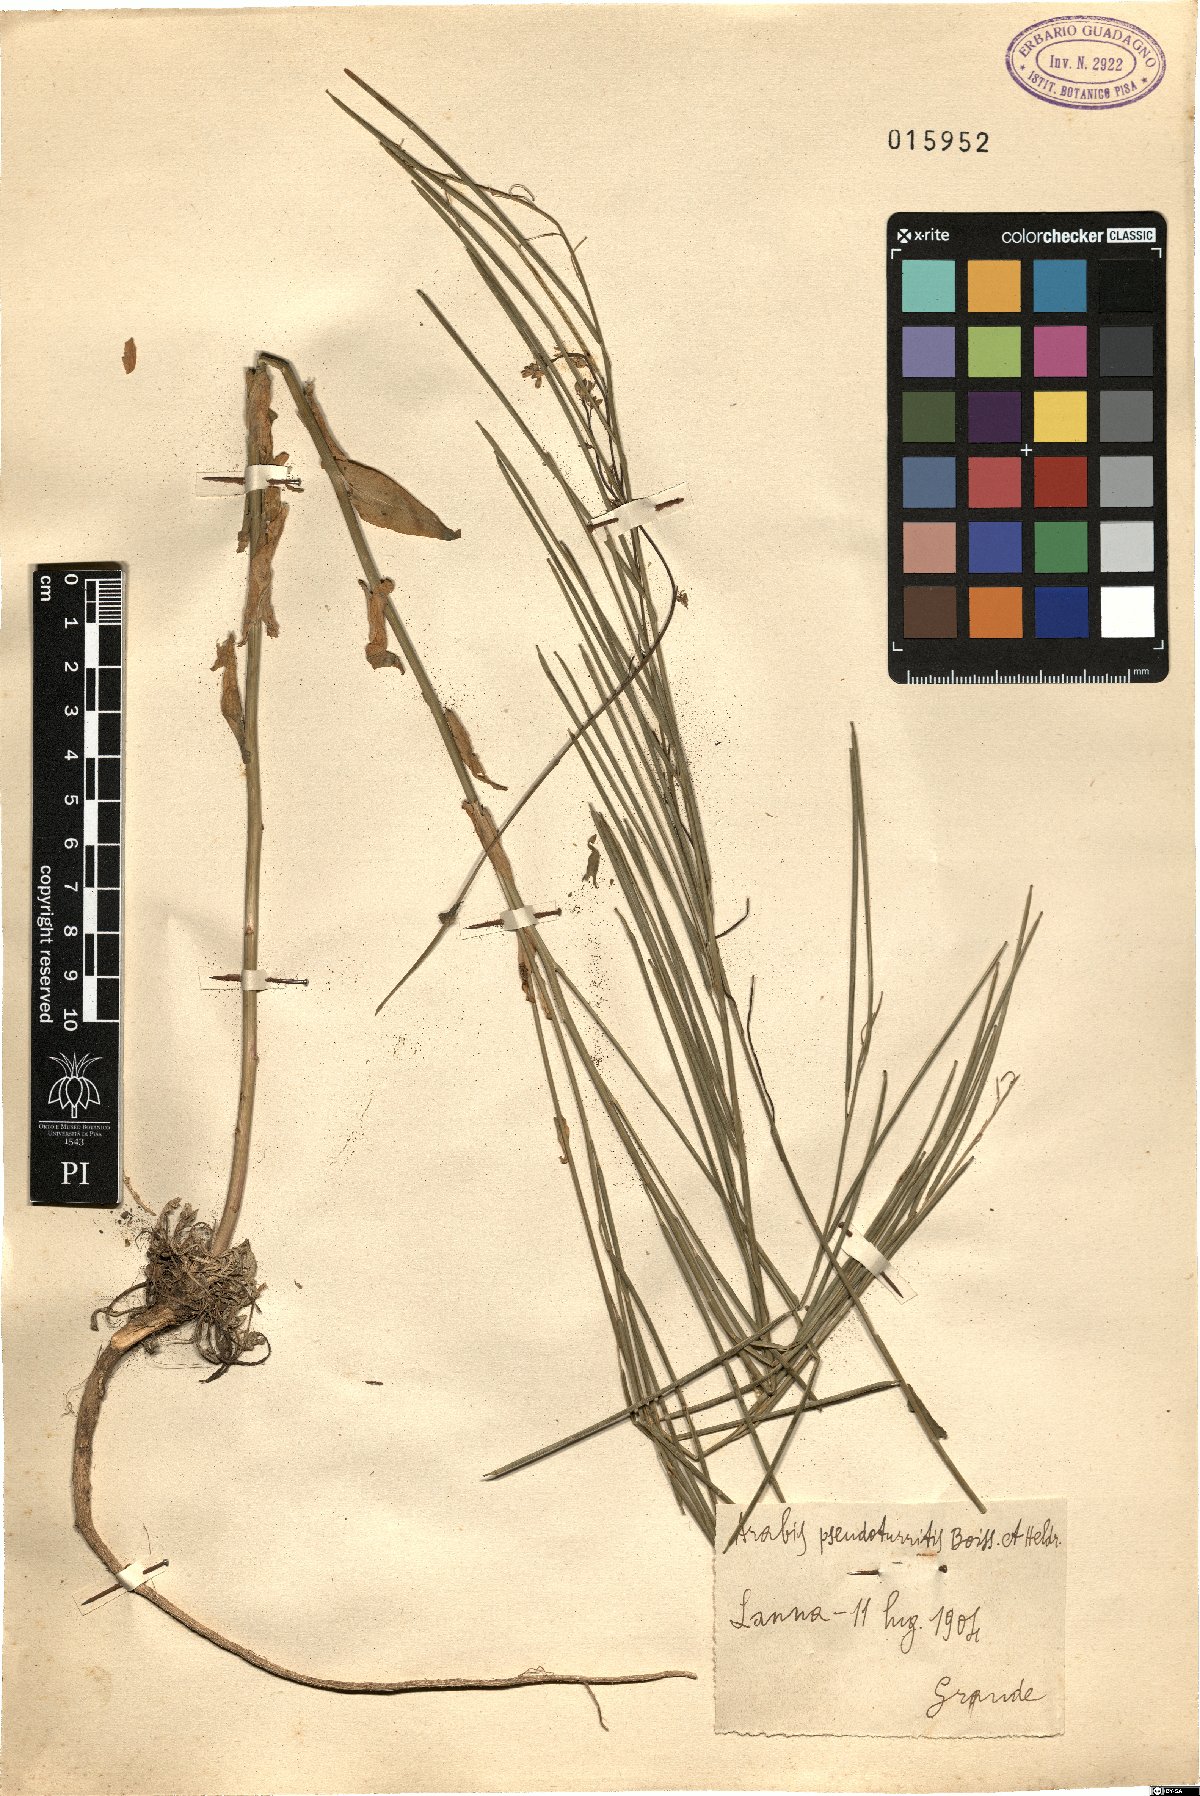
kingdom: Plantae
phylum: Tracheophyta
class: Magnoliopsida
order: Brassicales
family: Brassicaceae
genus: Turritis
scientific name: Turritis glabra
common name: Tower rockcress
